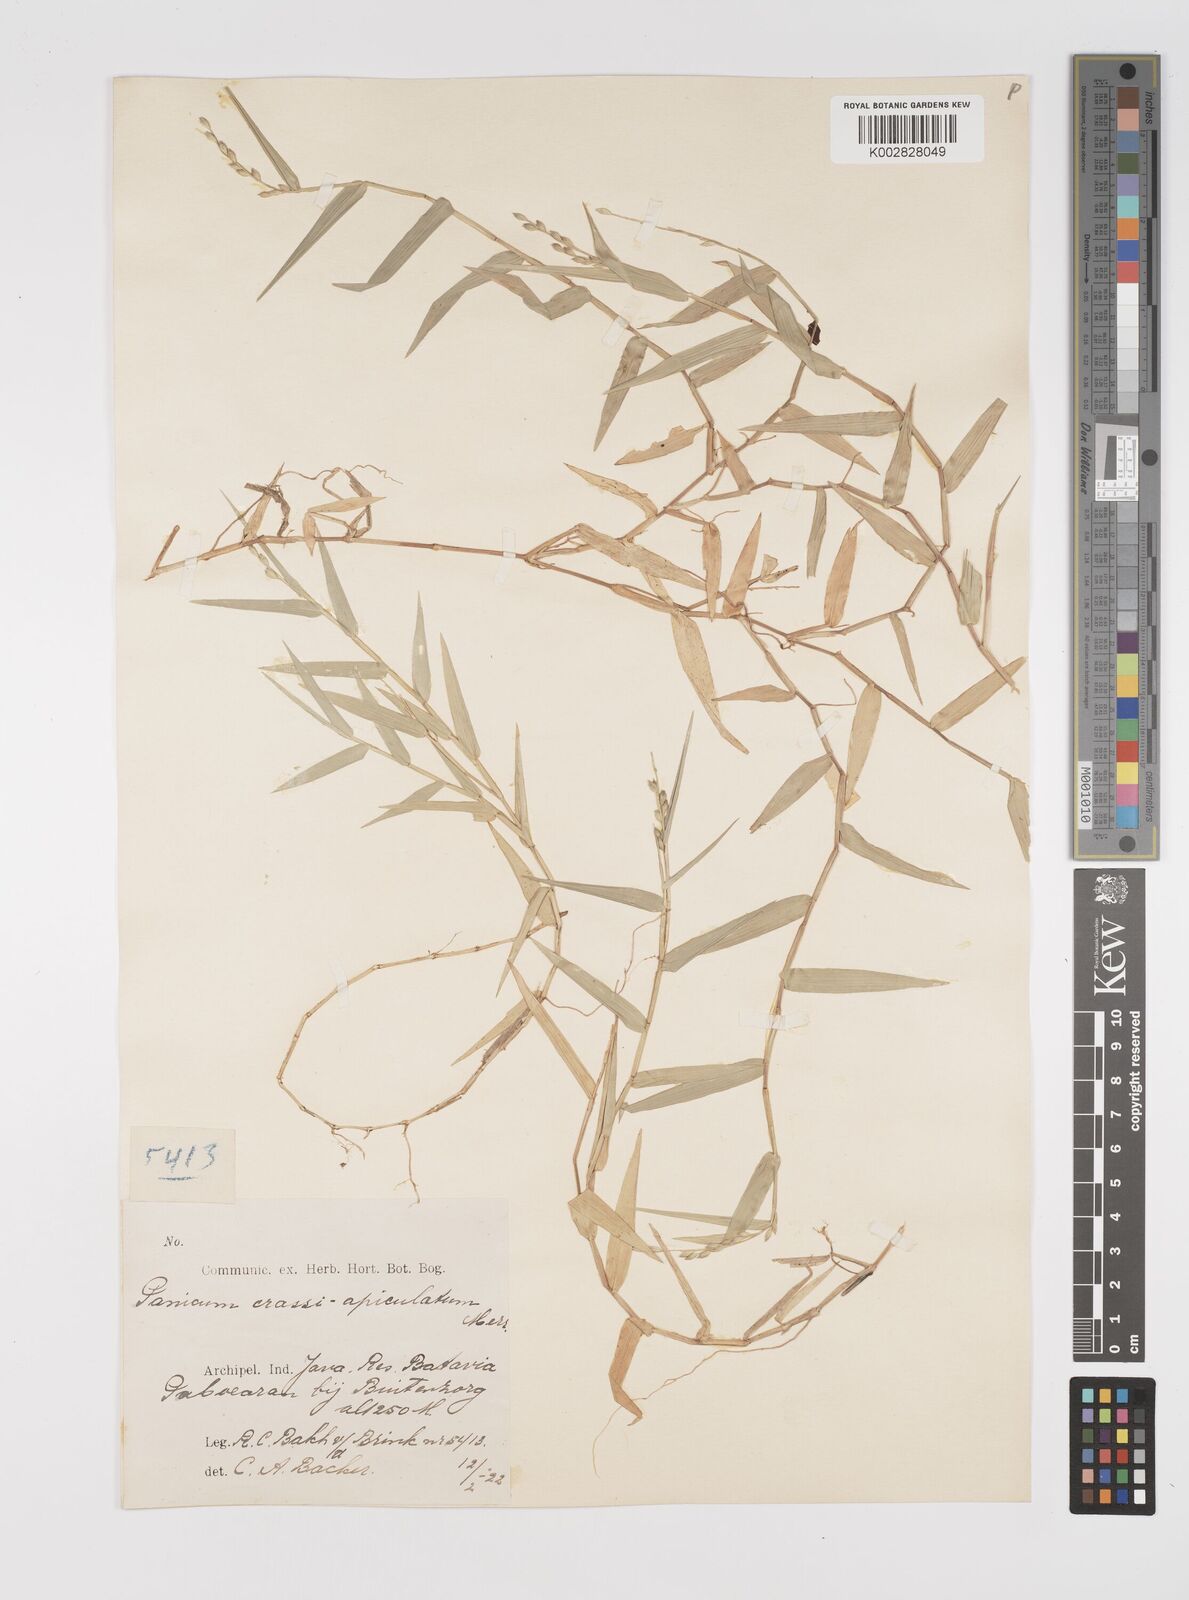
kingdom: Plantae
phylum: Tracheophyta
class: Liliopsida
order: Poales
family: Poaceae
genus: Acroceras
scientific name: Acroceras munroanum
